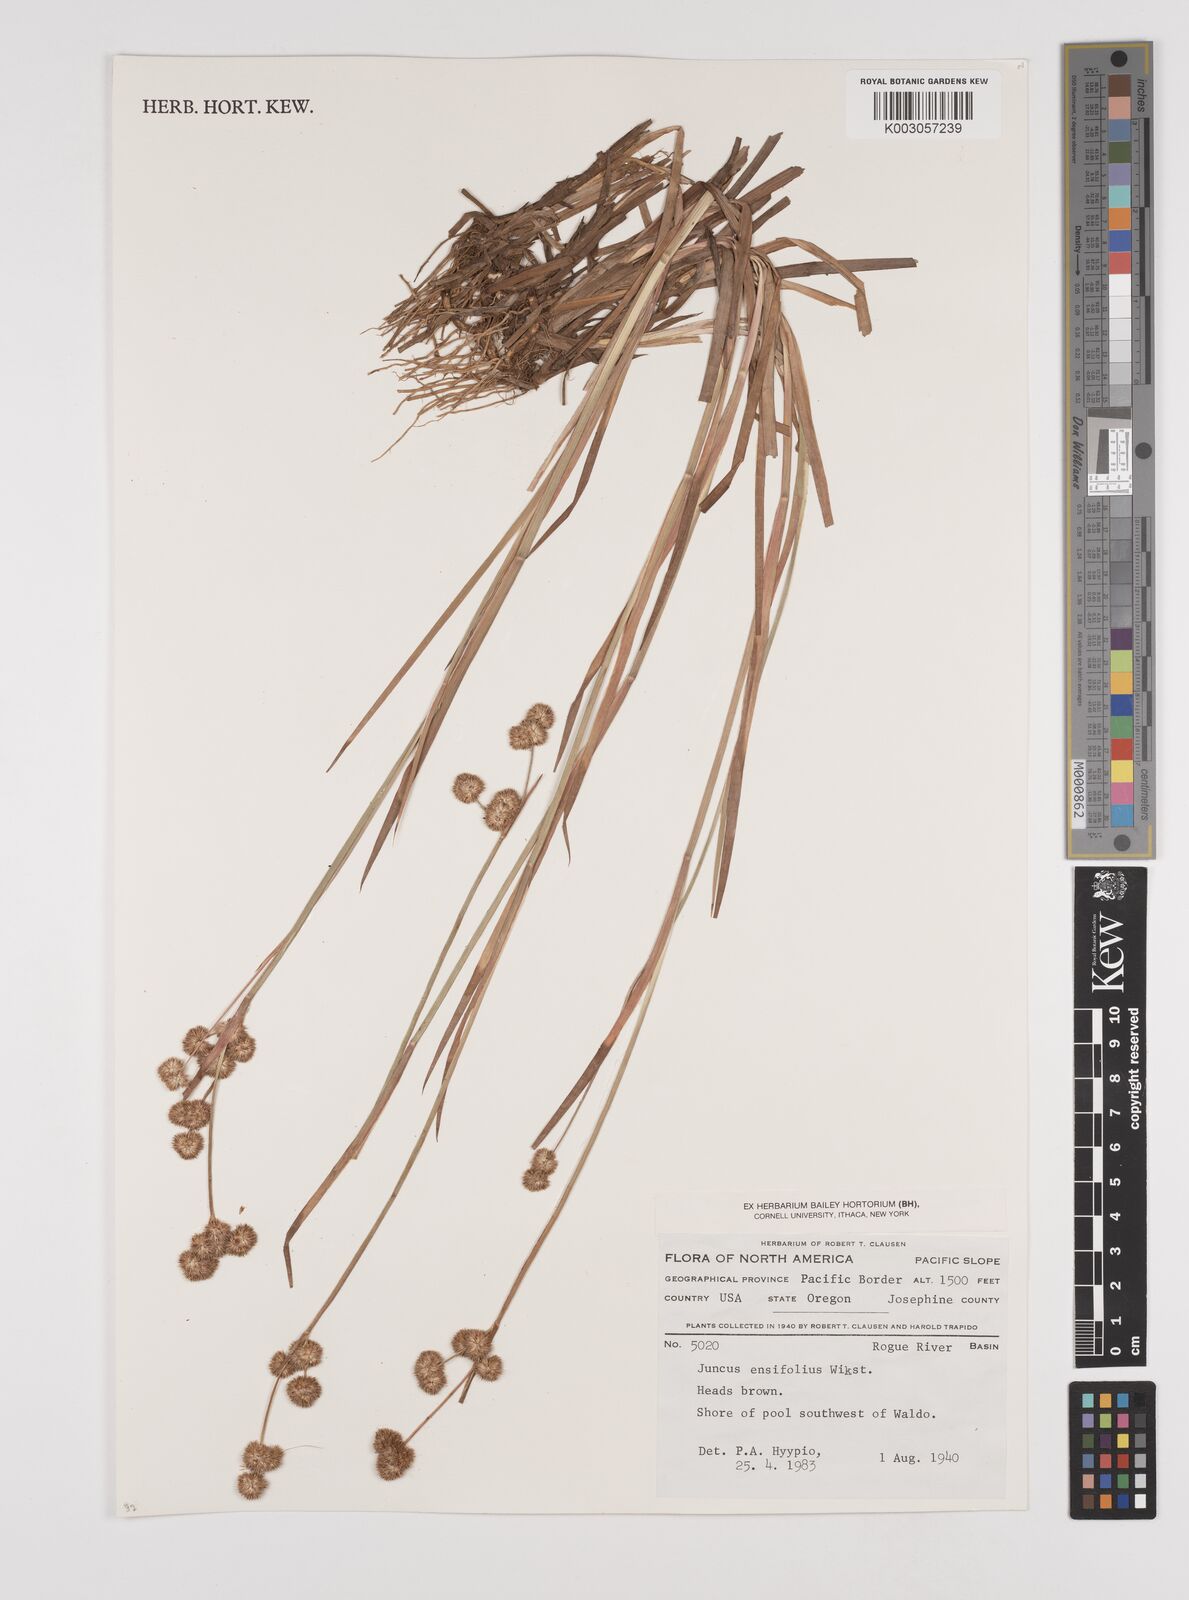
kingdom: Plantae
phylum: Tracheophyta
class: Liliopsida
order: Poales
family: Juncaceae
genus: Juncus
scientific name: Juncus ensifolius
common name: Sword-leaved rush
